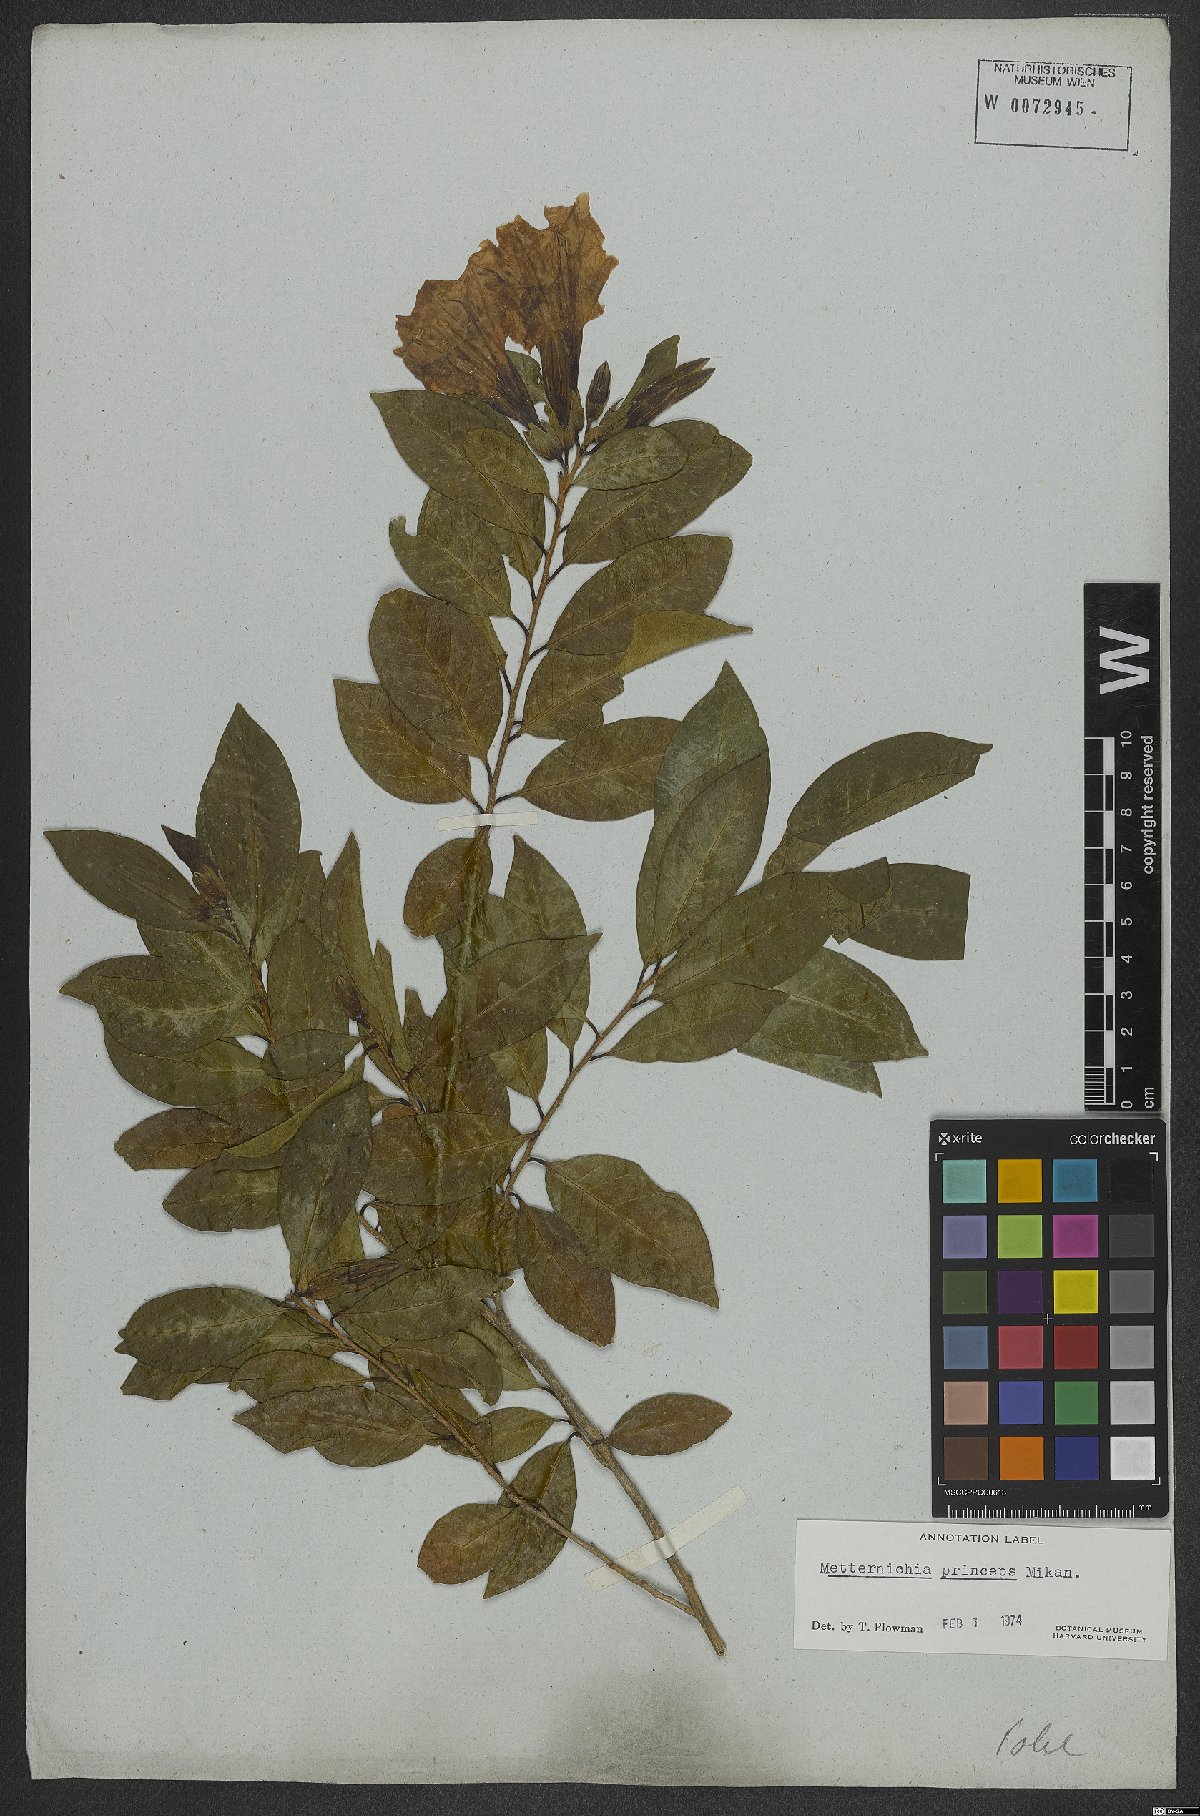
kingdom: Plantae
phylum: Tracheophyta
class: Magnoliopsida
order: Solanales
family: Solanaceae
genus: Metternichia
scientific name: Metternichia principis
